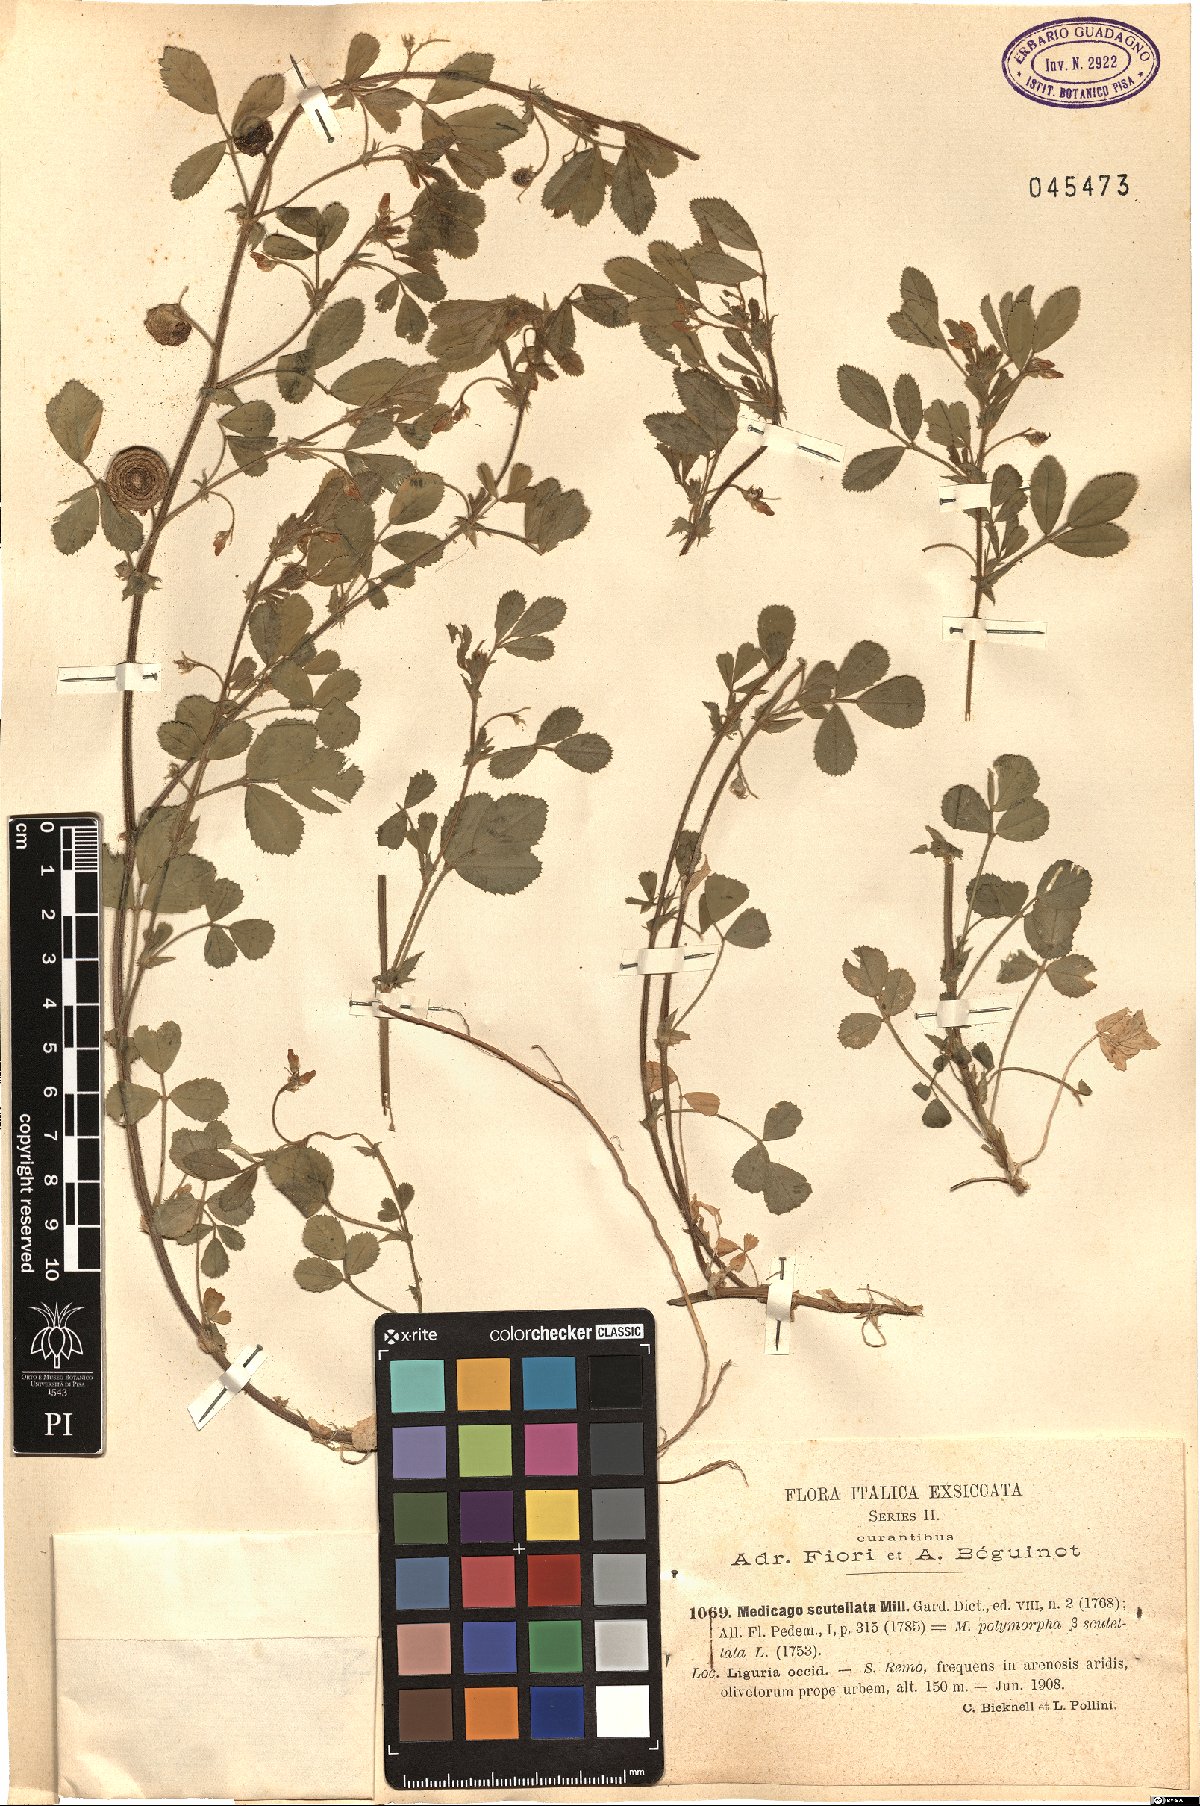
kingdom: Plantae
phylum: Tracheophyta
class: Magnoliopsida
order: Fabales
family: Fabaceae
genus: Medicago
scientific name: Medicago scutellata
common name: Snail medick
